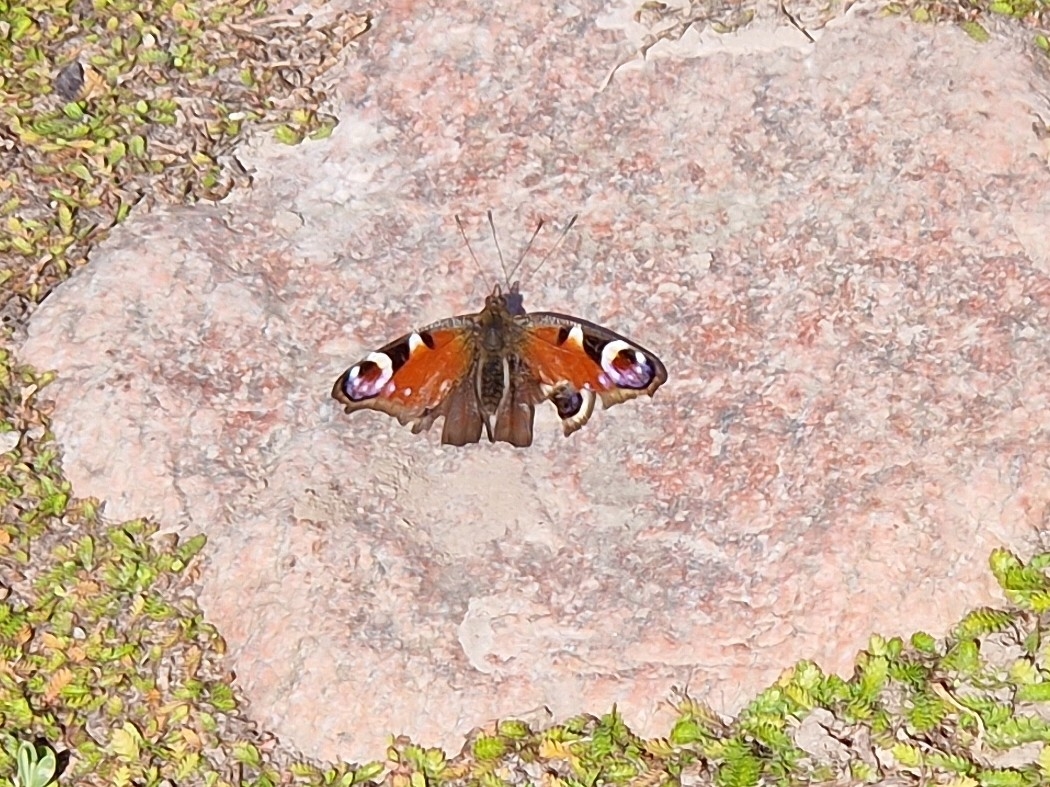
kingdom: Animalia
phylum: Arthropoda
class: Insecta
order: Lepidoptera
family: Nymphalidae
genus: Aglais
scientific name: Aglais io
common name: Dagpåfugleøje
